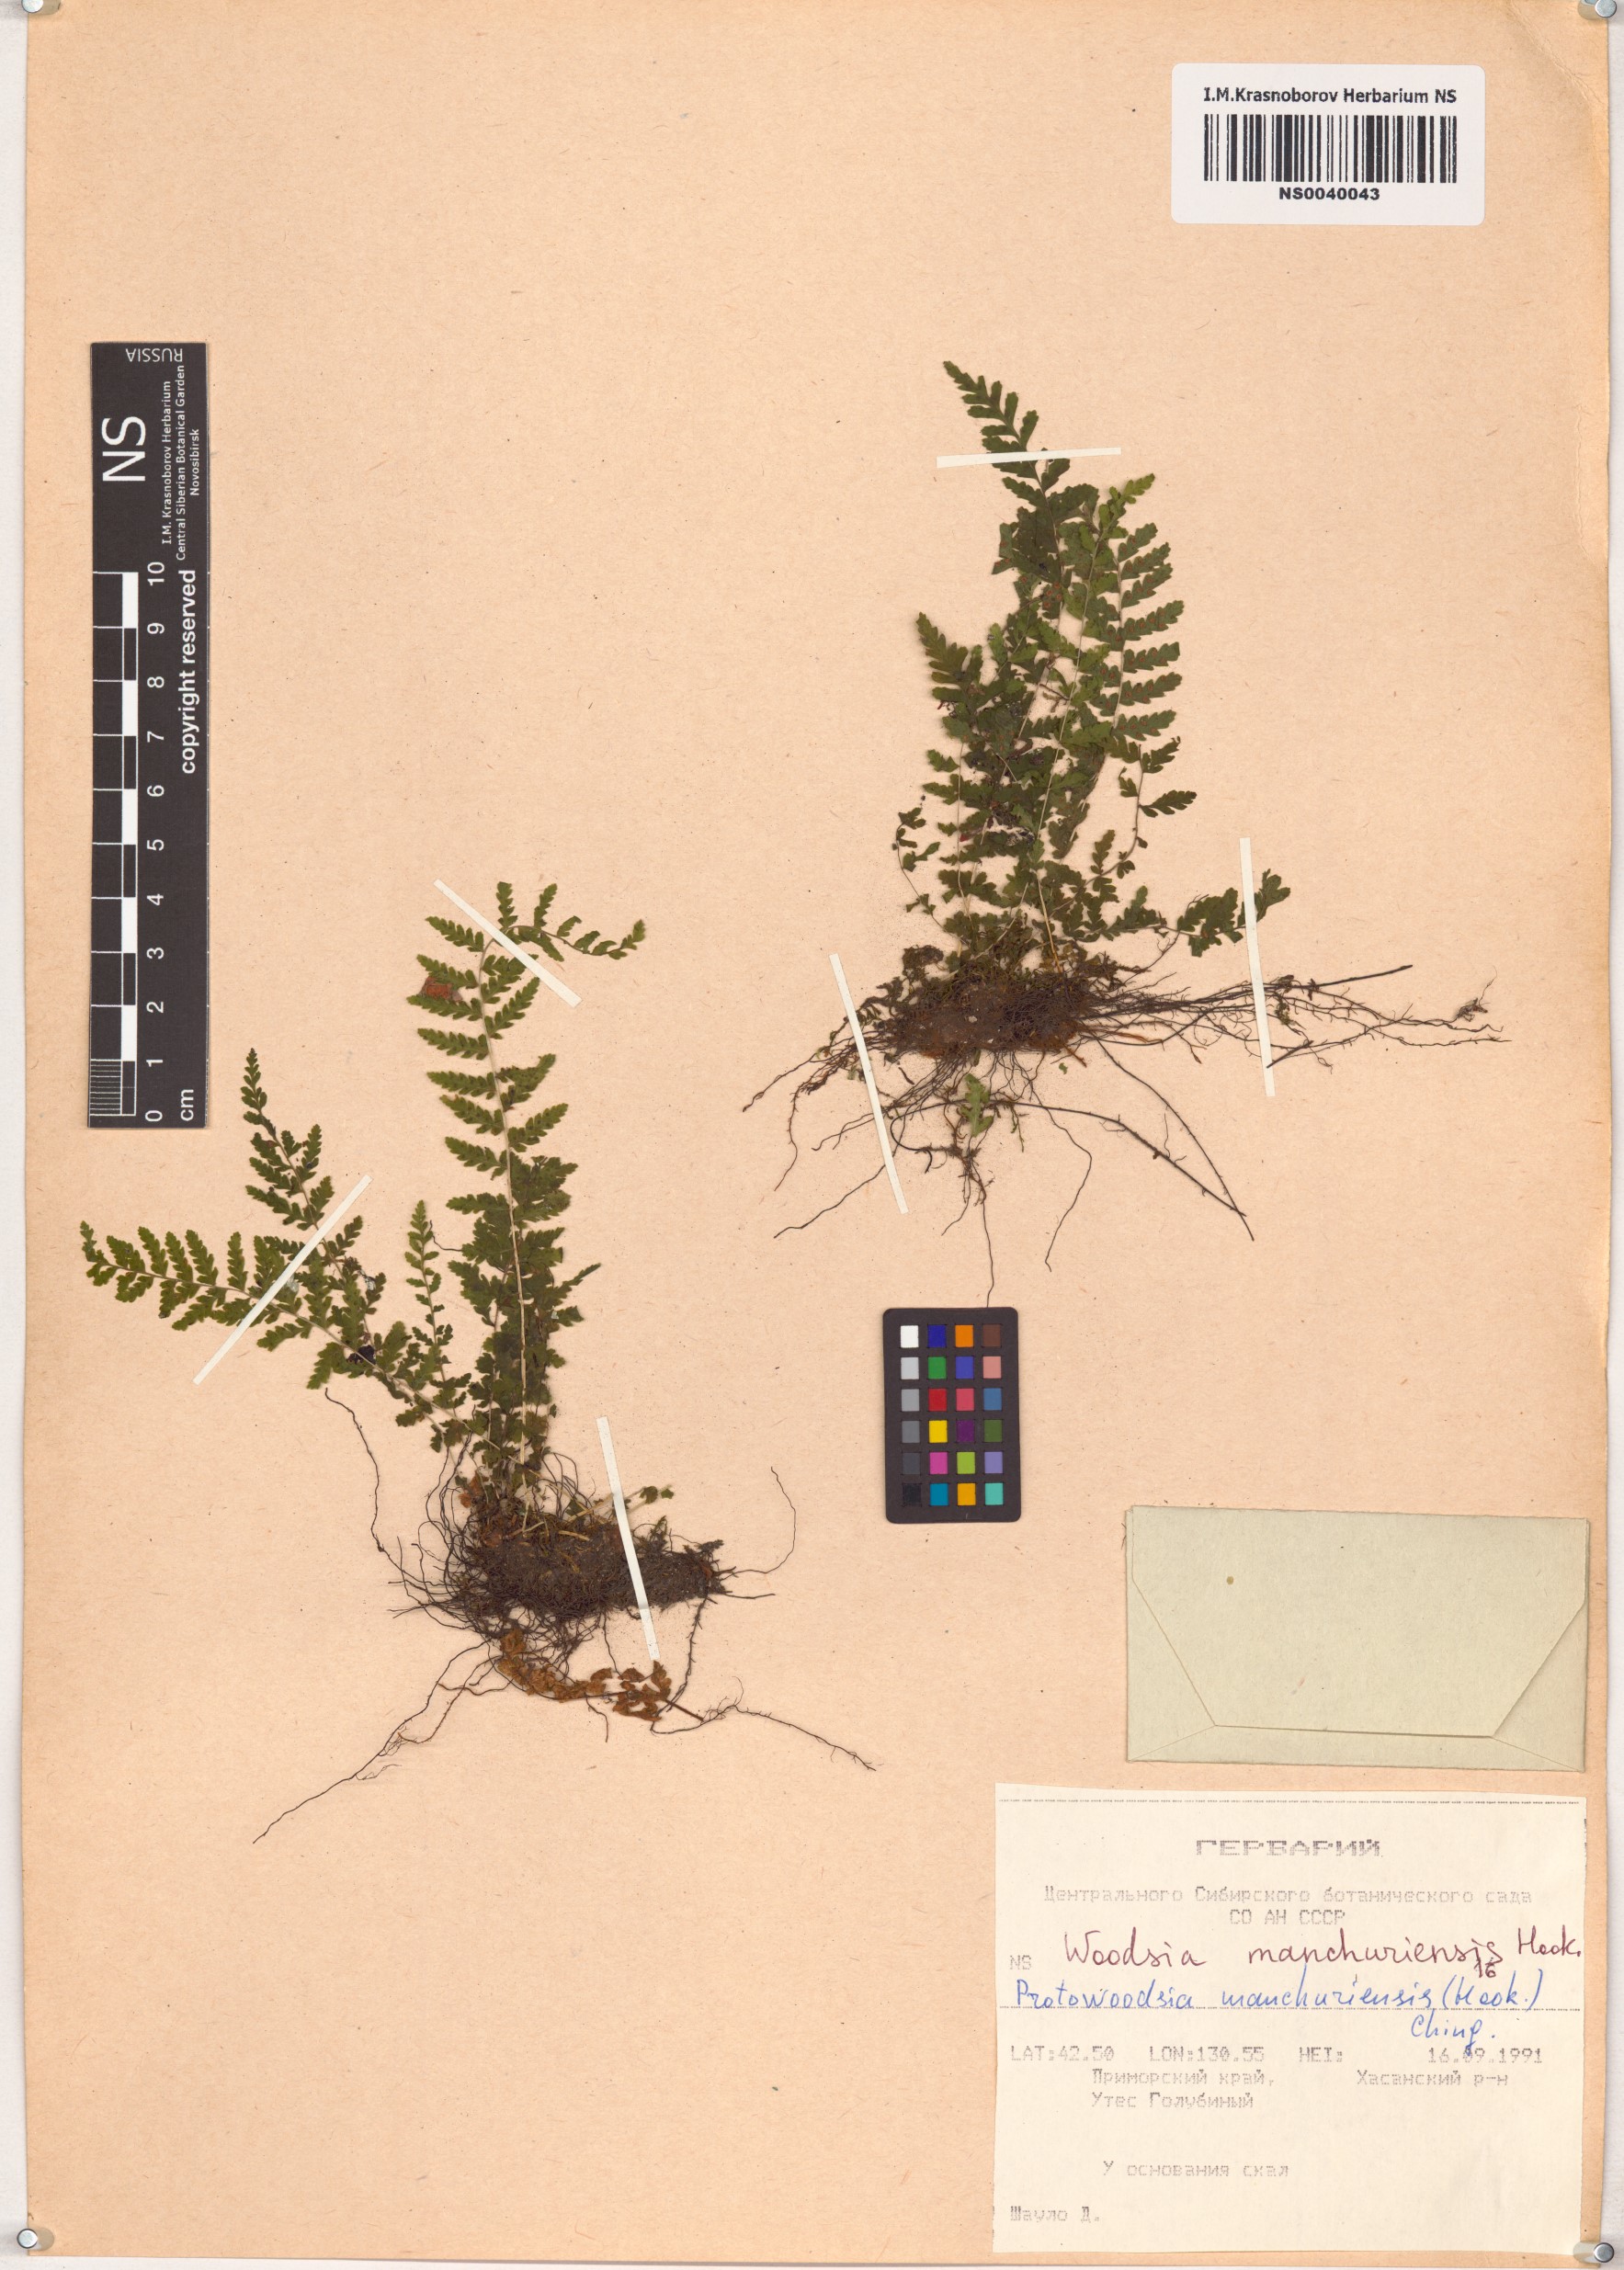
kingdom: Plantae
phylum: Tracheophyta
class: Polypodiopsida
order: Polypodiales
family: Woodsiaceae
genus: Physematium
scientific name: Physematium manchuriense
